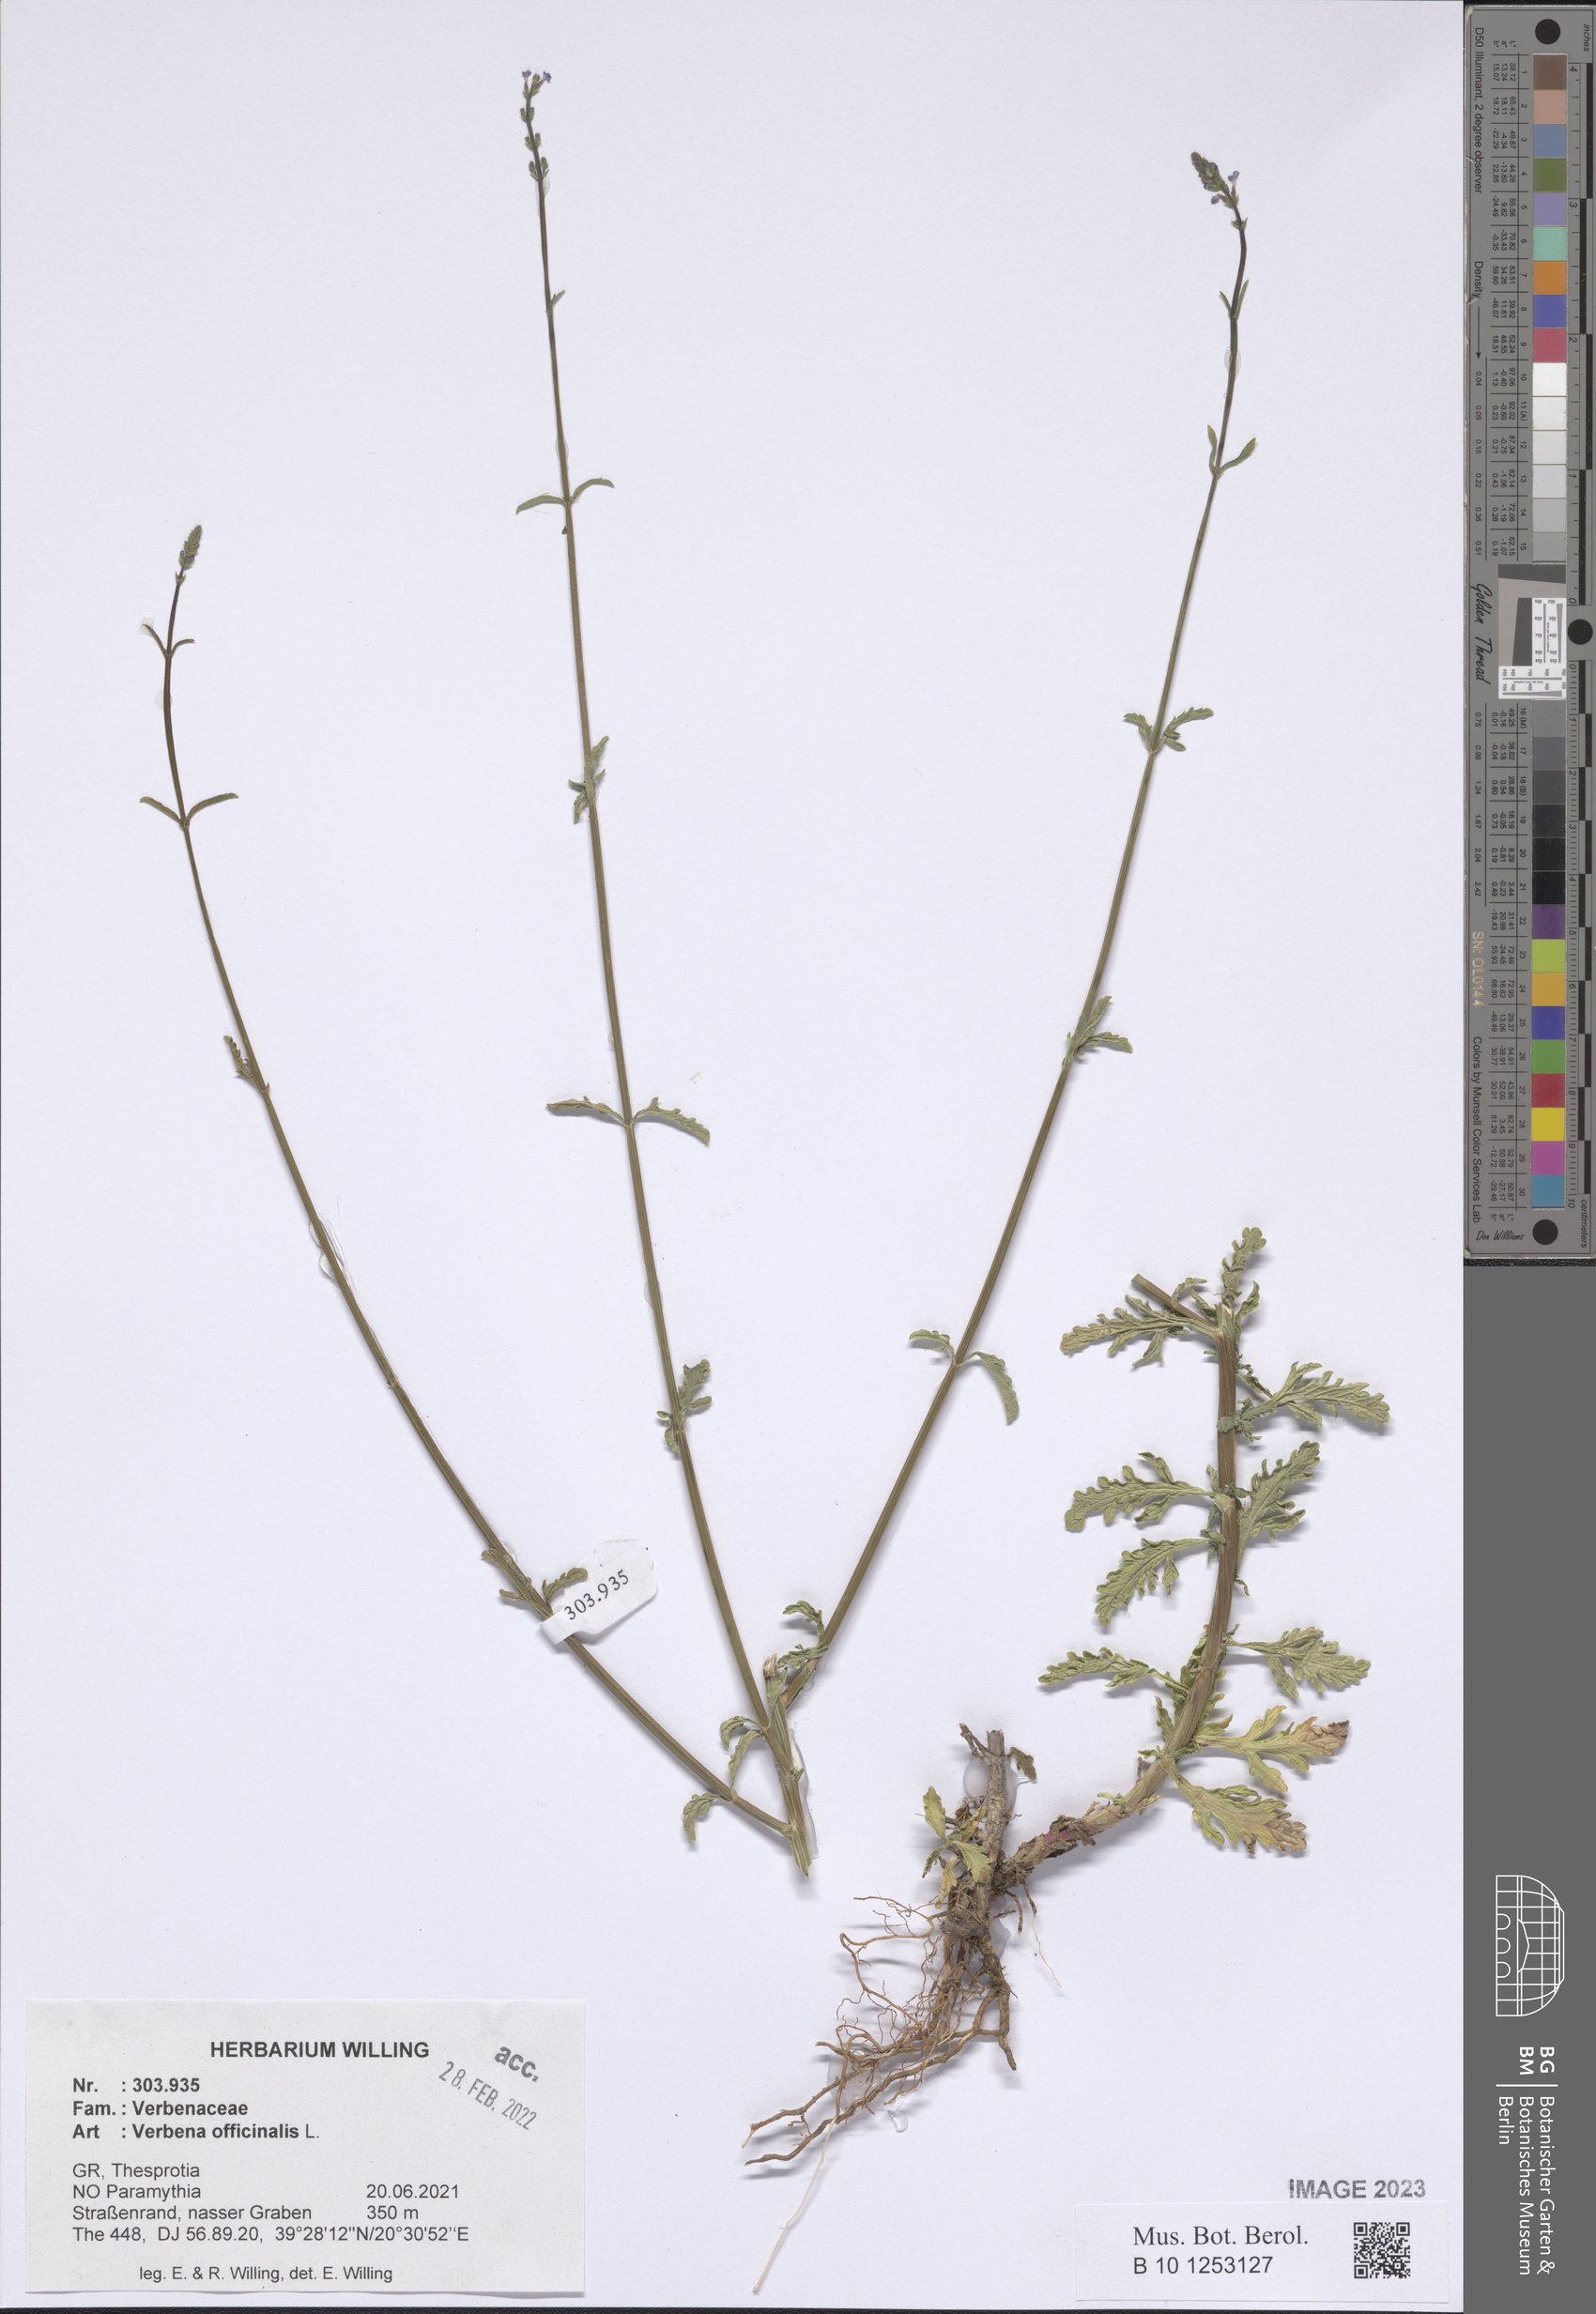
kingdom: Plantae
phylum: Tracheophyta
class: Magnoliopsida
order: Lamiales
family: Verbenaceae
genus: Verbena
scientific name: Verbena officinalis
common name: Vervain
